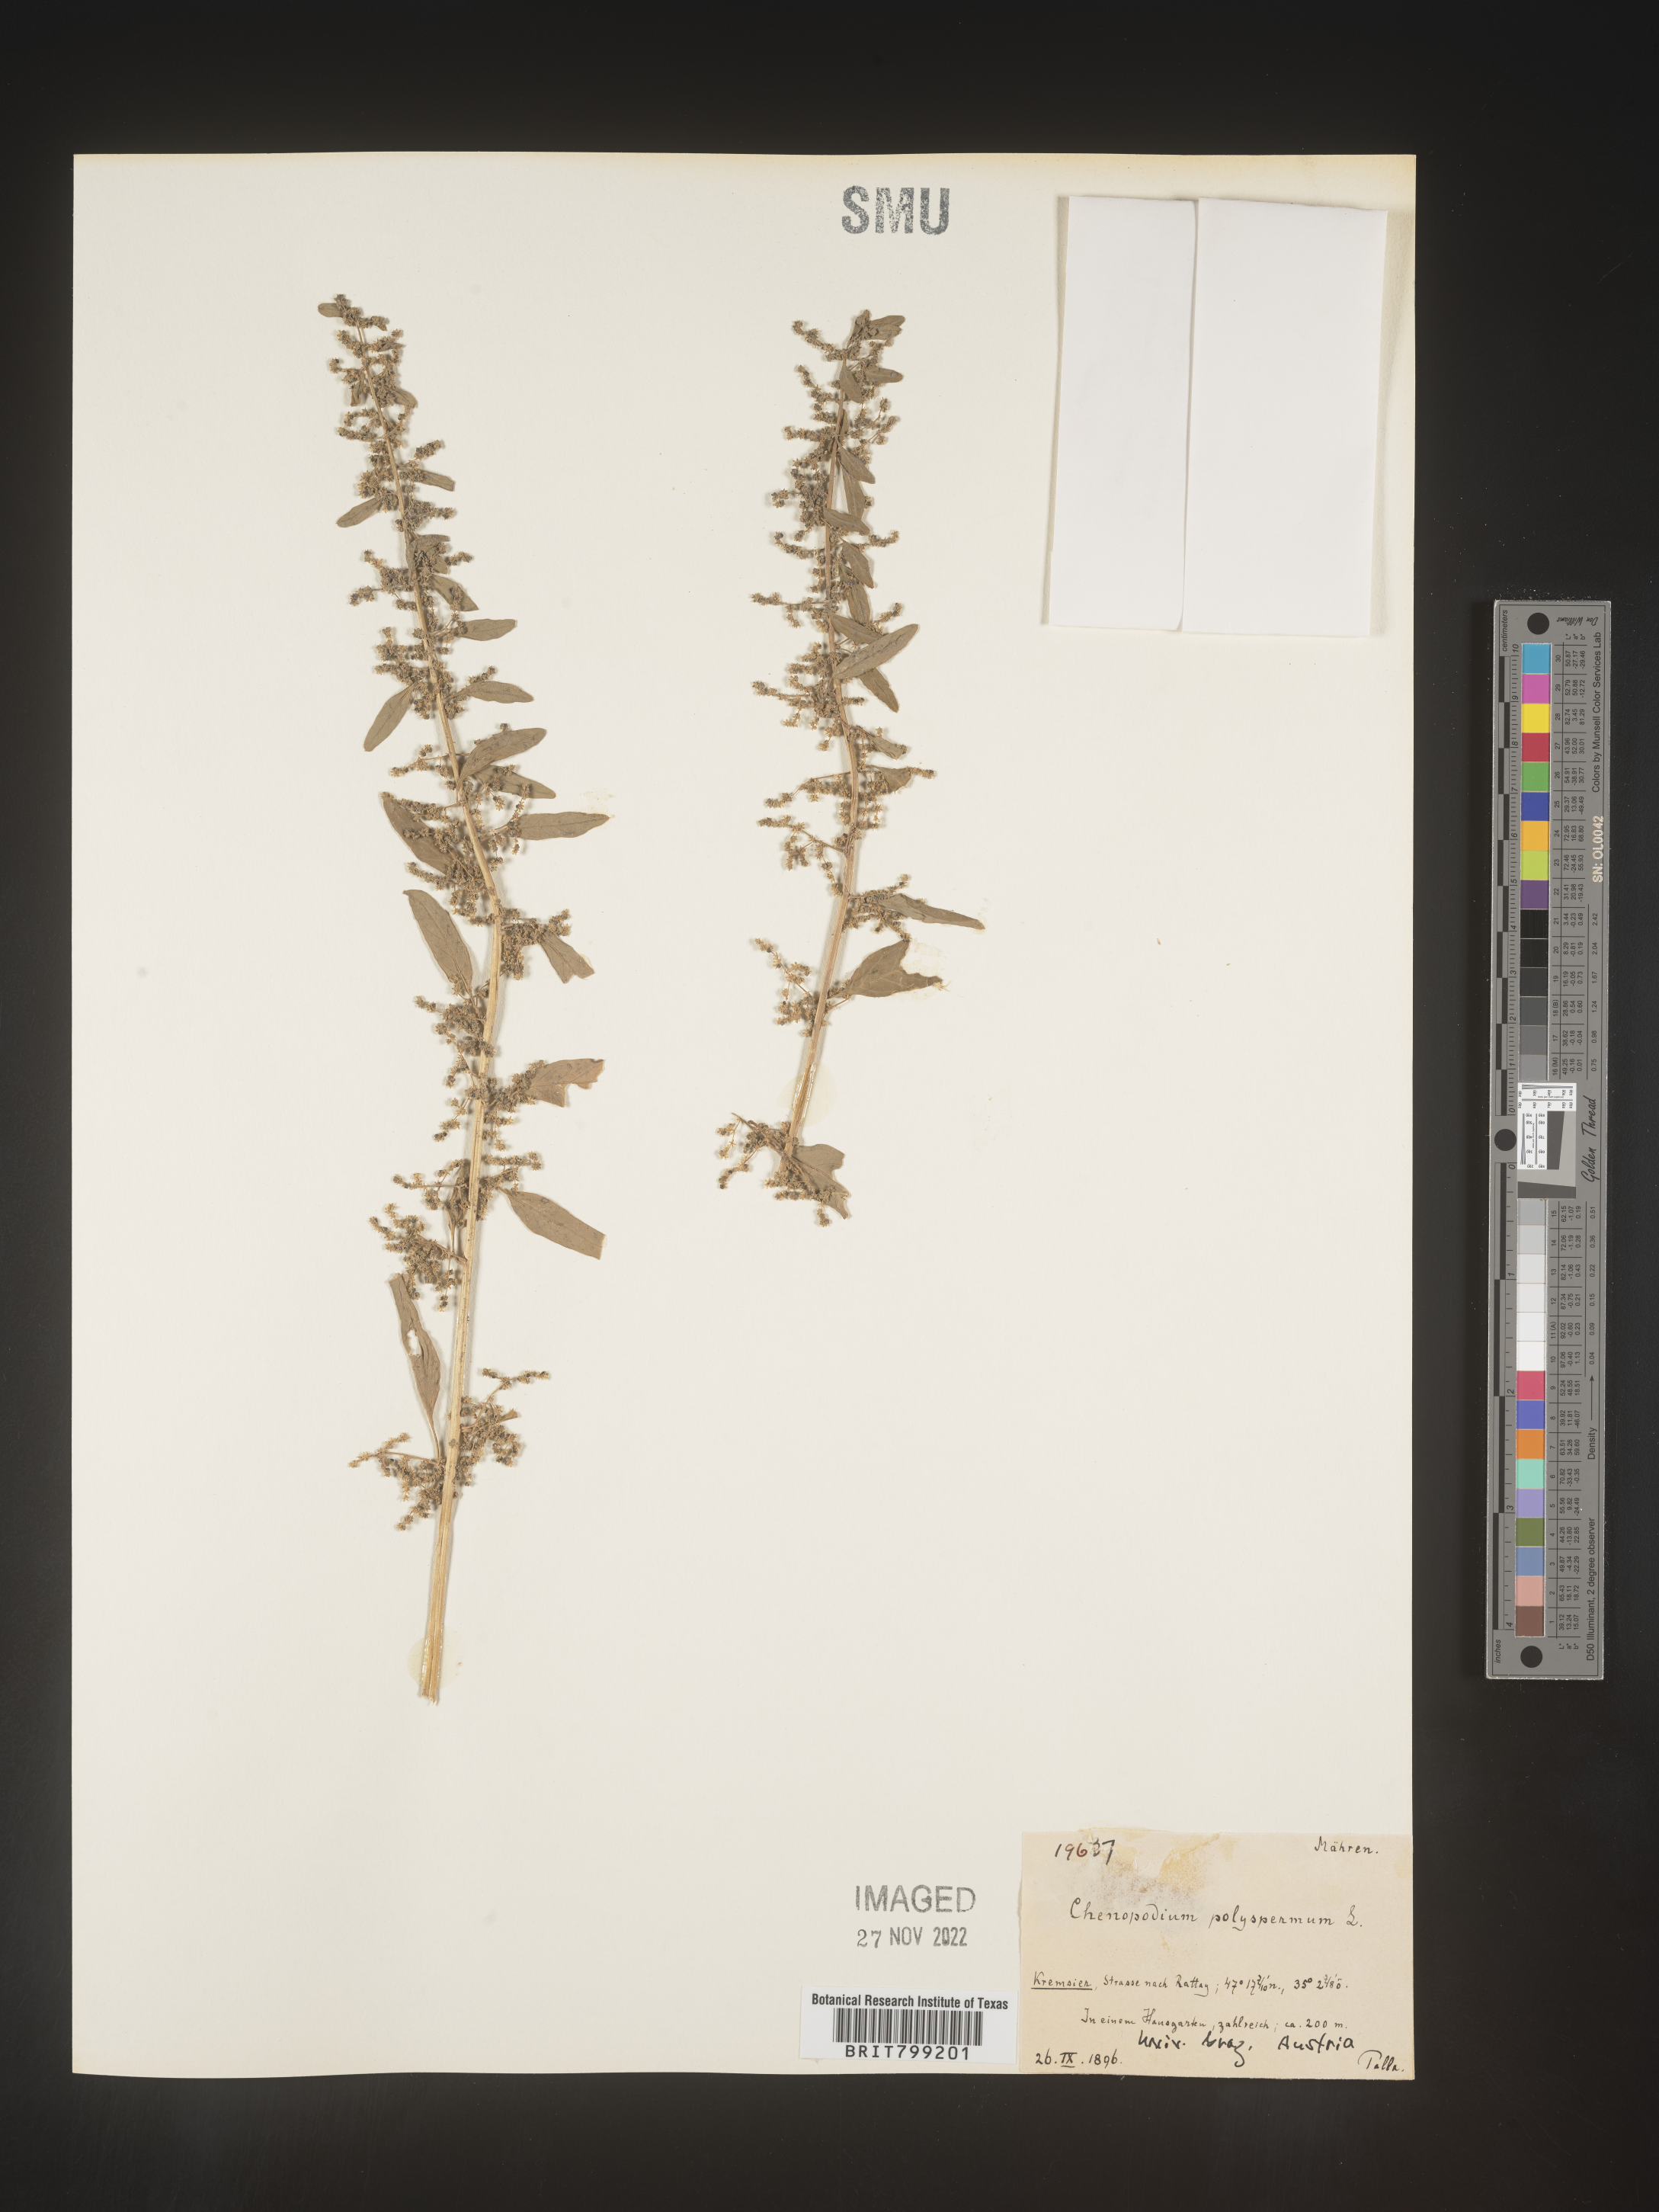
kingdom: Plantae
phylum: Tracheophyta
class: Magnoliopsida
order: Caryophyllales
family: Amaranthaceae
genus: Chenopodium
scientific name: Chenopodium
